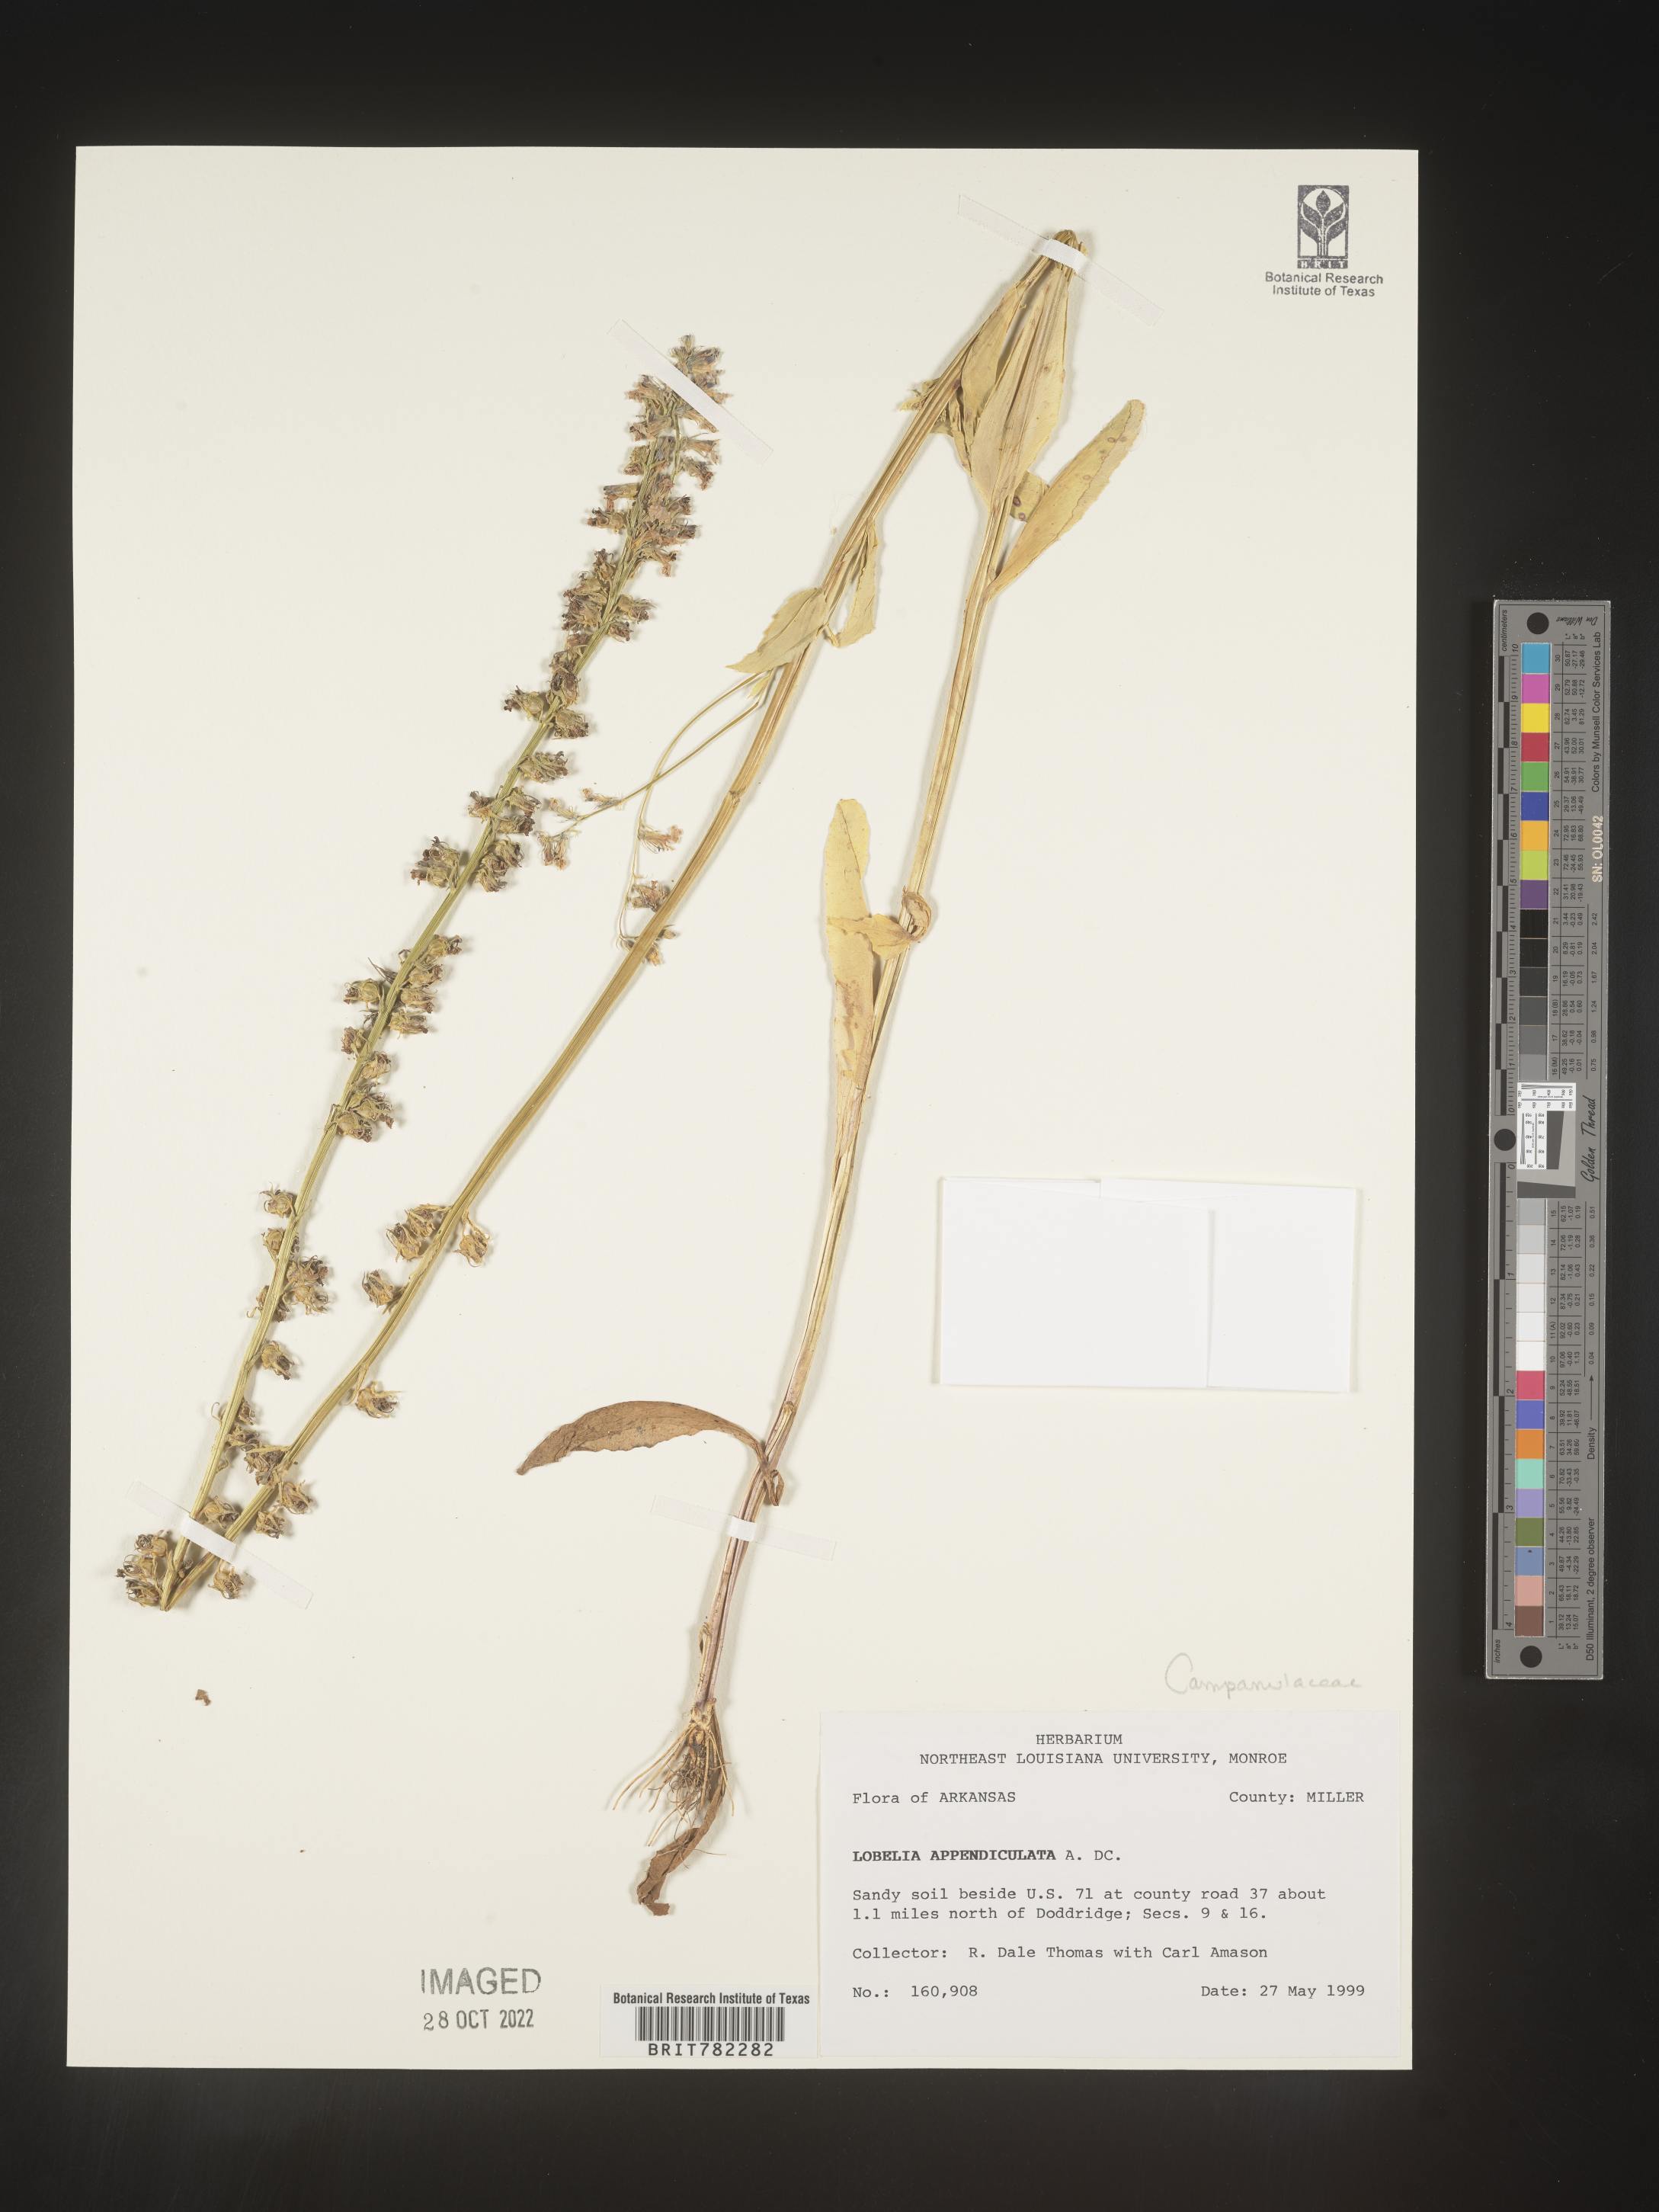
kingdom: Plantae
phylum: Tracheophyta
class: Magnoliopsida
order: Asterales
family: Campanulaceae
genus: Lobelia
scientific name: Lobelia appendiculata
